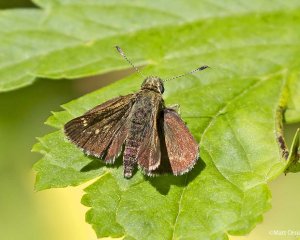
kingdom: Animalia
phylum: Arthropoda
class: Insecta
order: Lepidoptera
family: Hesperiidae
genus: Mastor
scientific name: Mastor hegon
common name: Pepper and Salt Skipper
